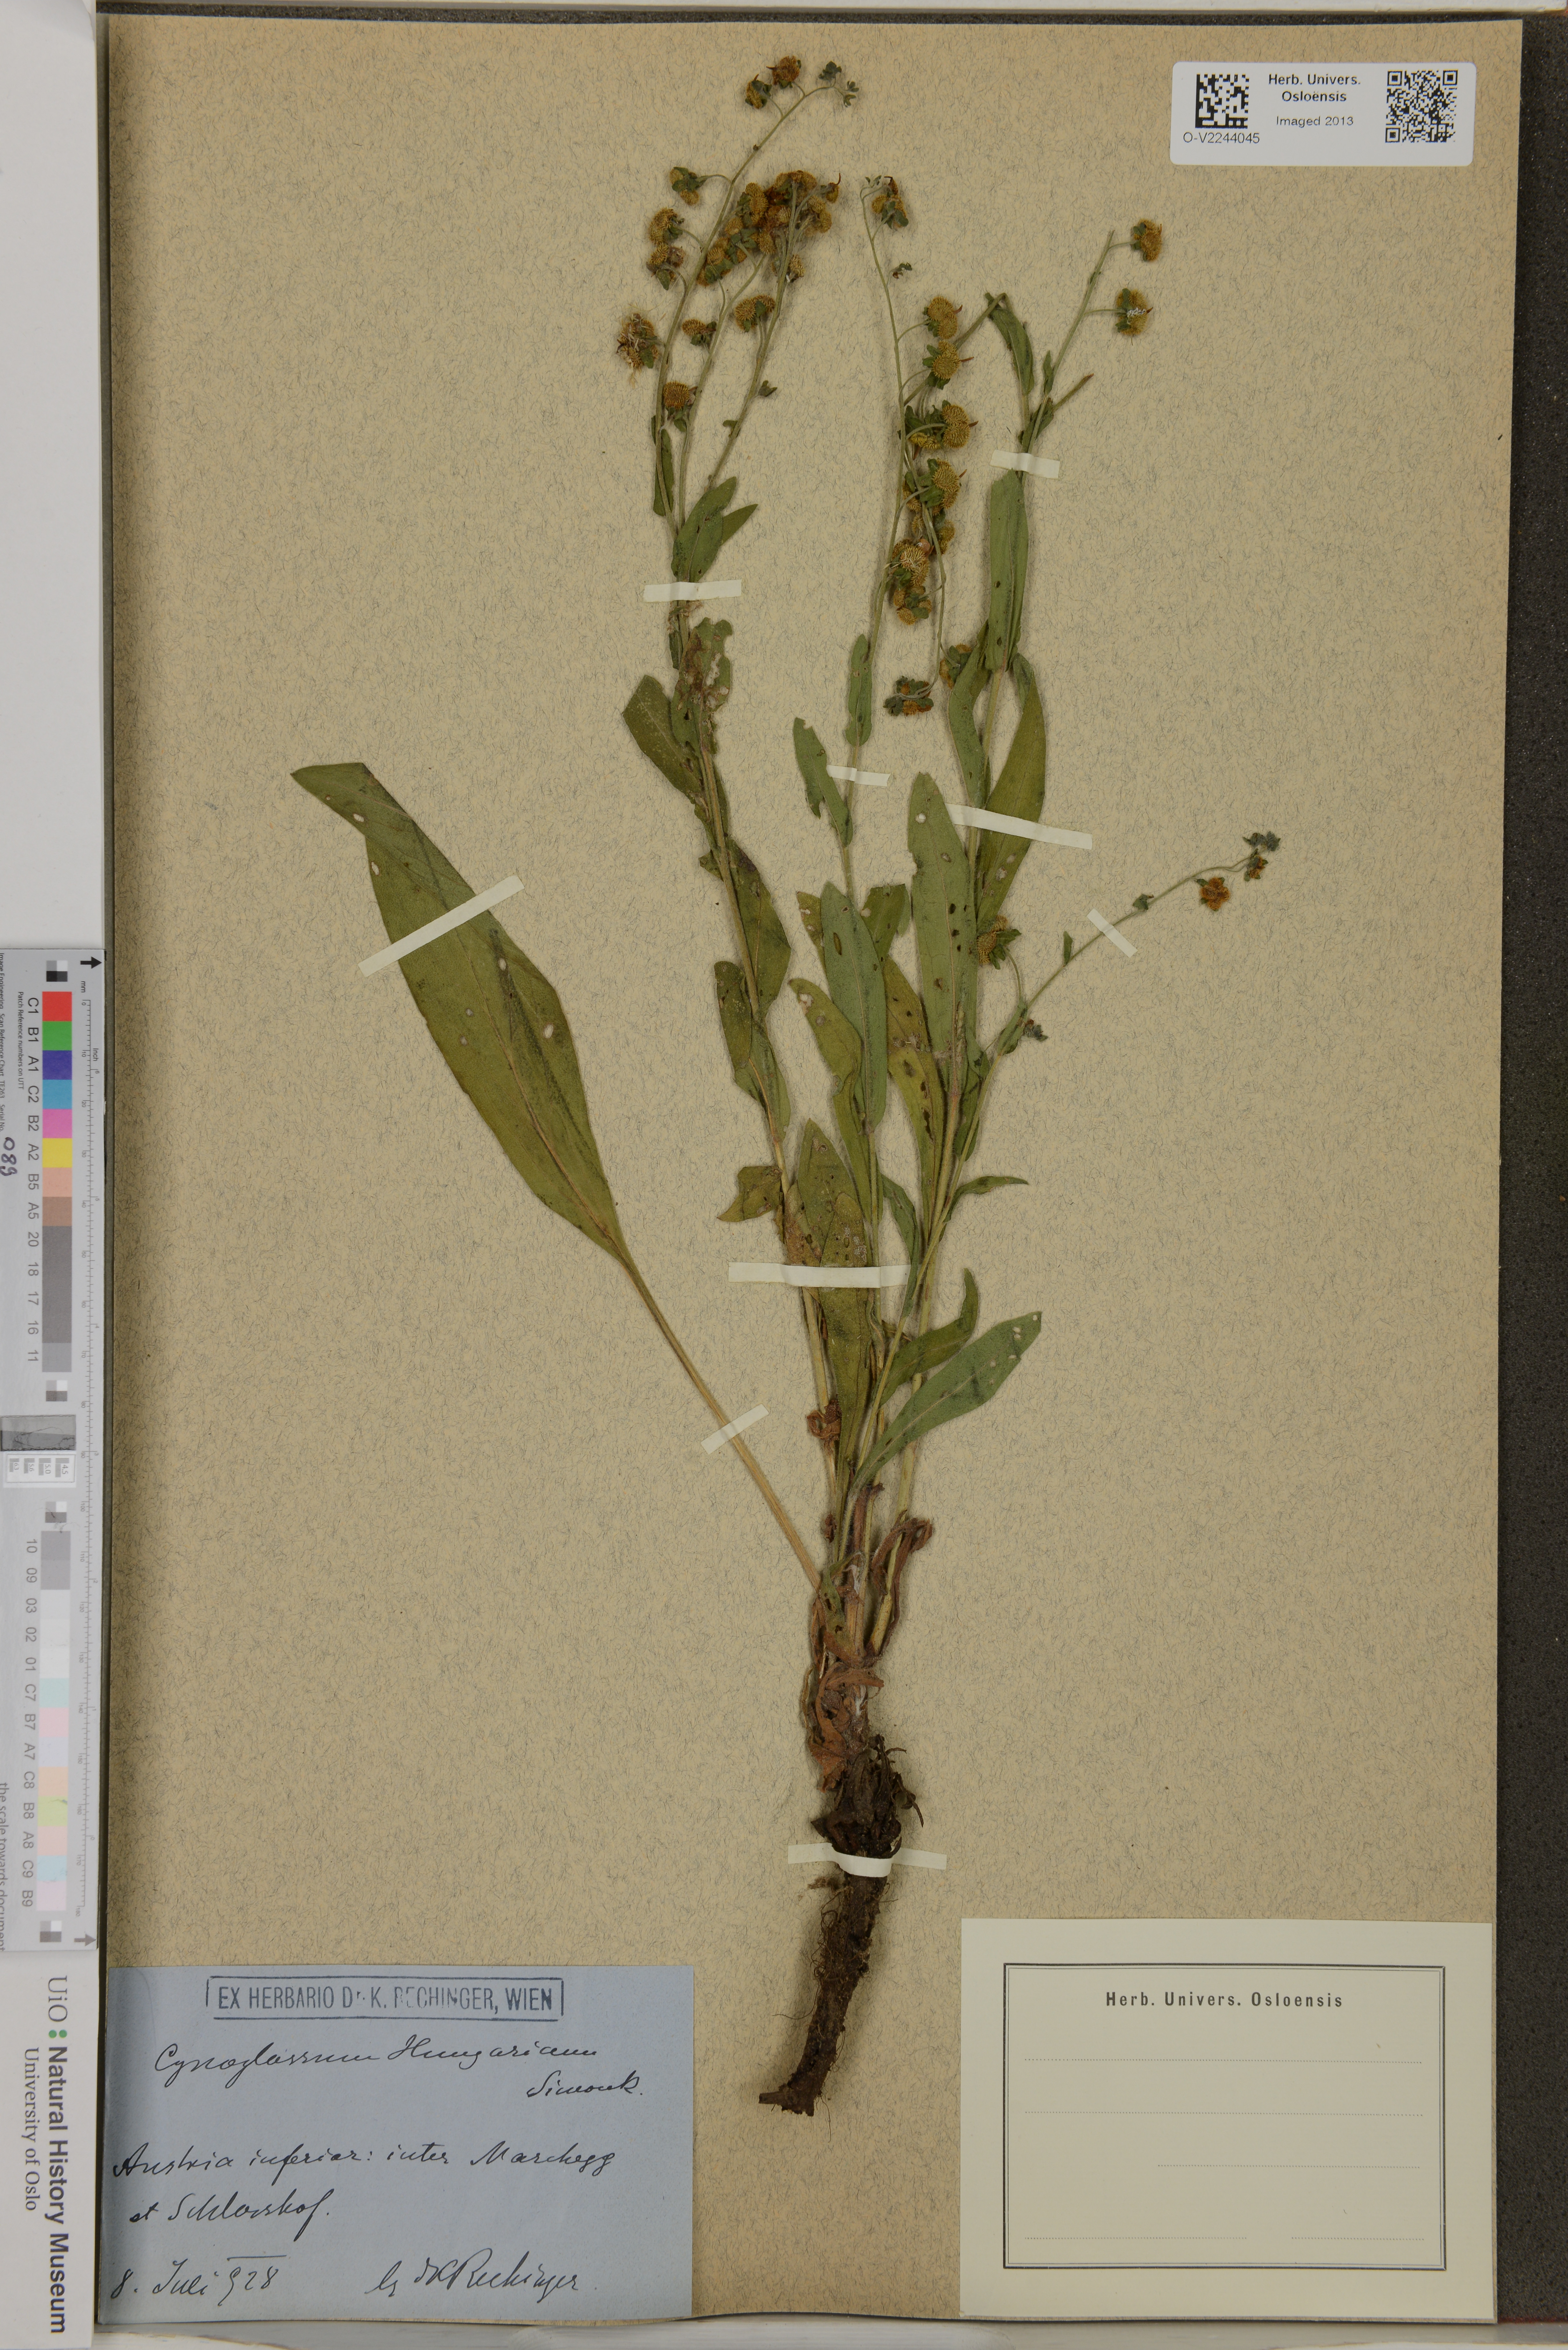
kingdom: Plantae
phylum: Tracheophyta
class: Magnoliopsida
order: Boraginales
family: Boraginaceae
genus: Cynoglossum
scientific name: Cynoglossum montanum
